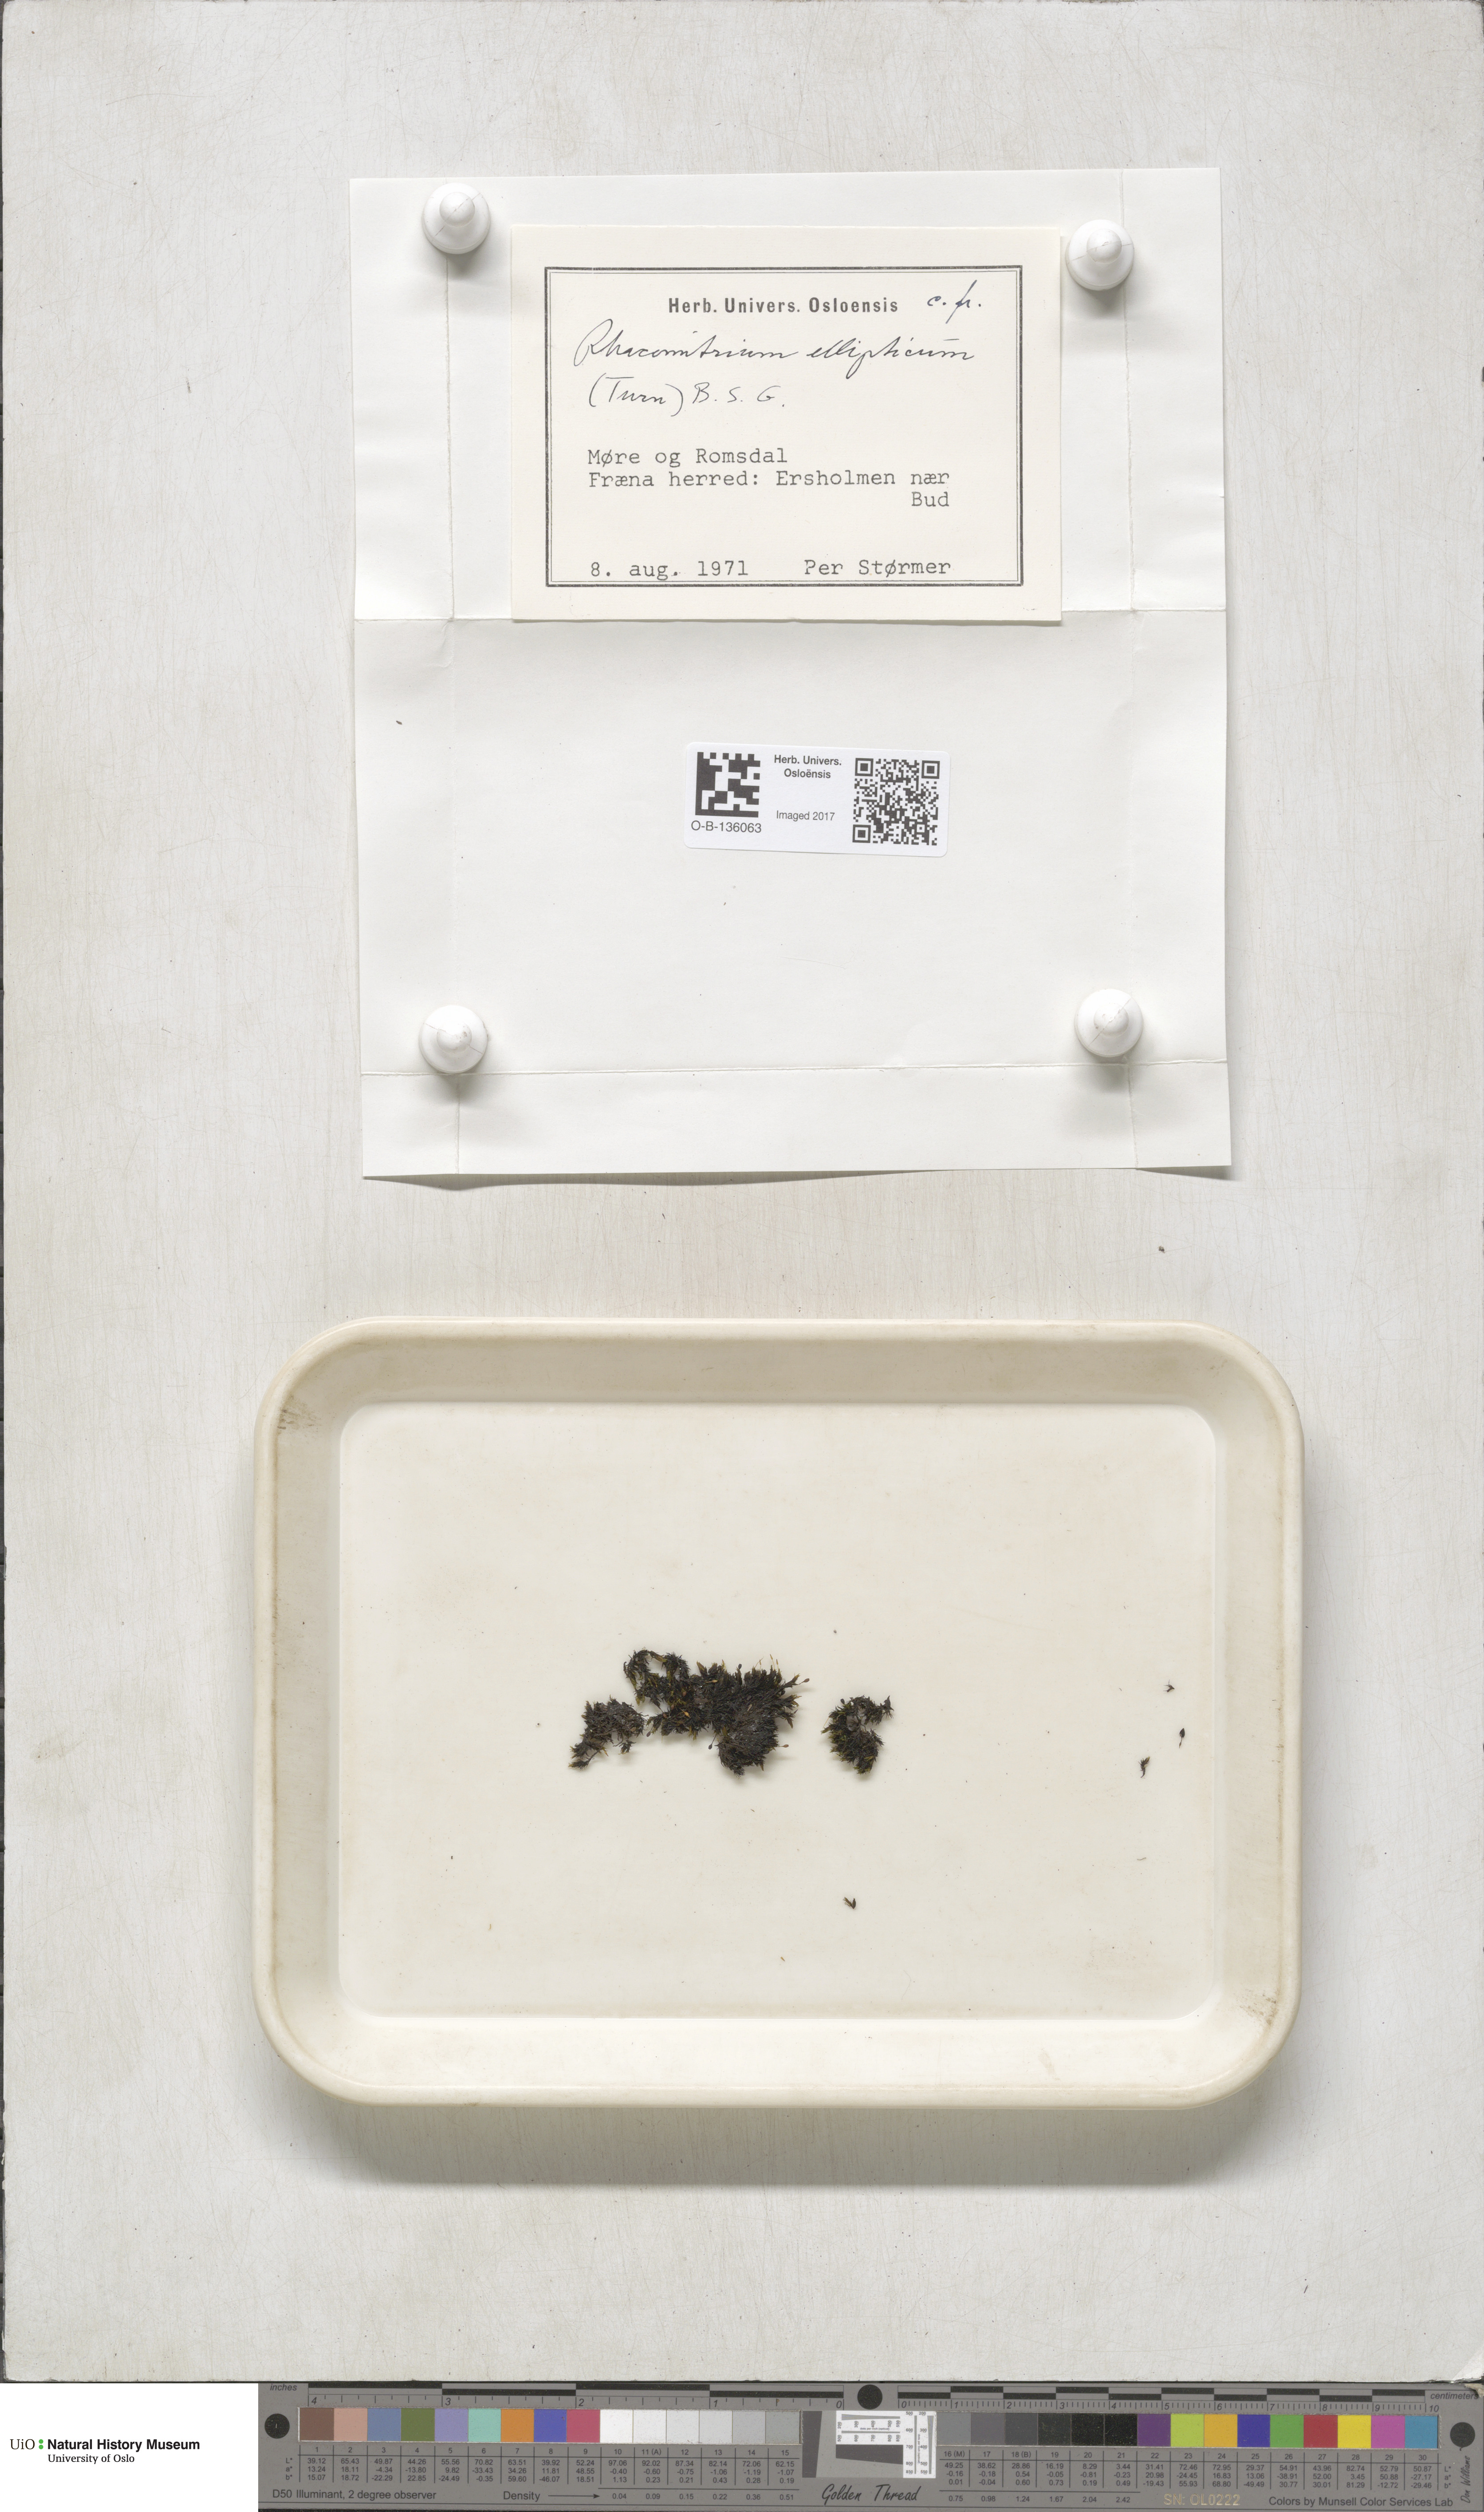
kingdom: Plantae
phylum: Bryophyta
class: Bryopsida
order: Grimmiales
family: Grimmiaceae
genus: Bucklandiella
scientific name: Bucklandiella elliptica
